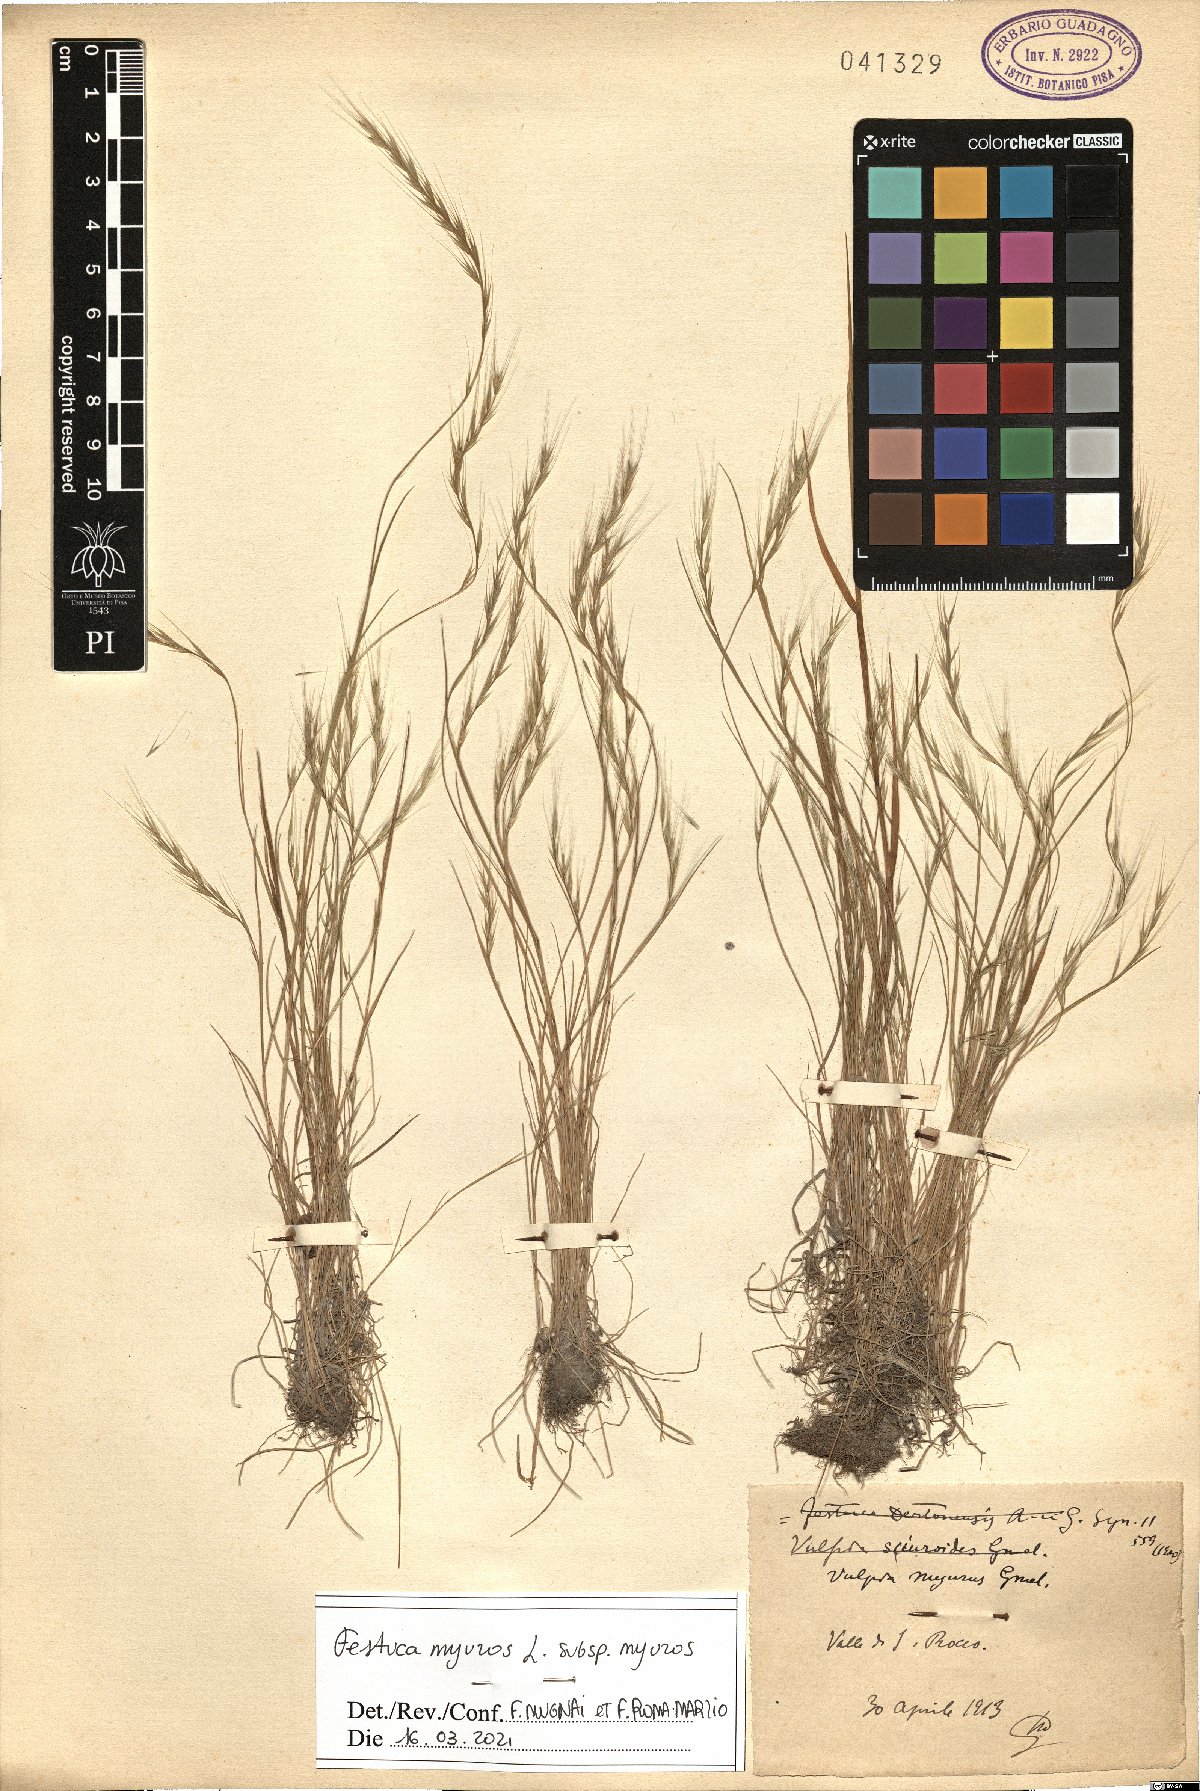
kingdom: Plantae
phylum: Tracheophyta
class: Liliopsida
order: Poales
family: Poaceae
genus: Festuca
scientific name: Festuca myuros
